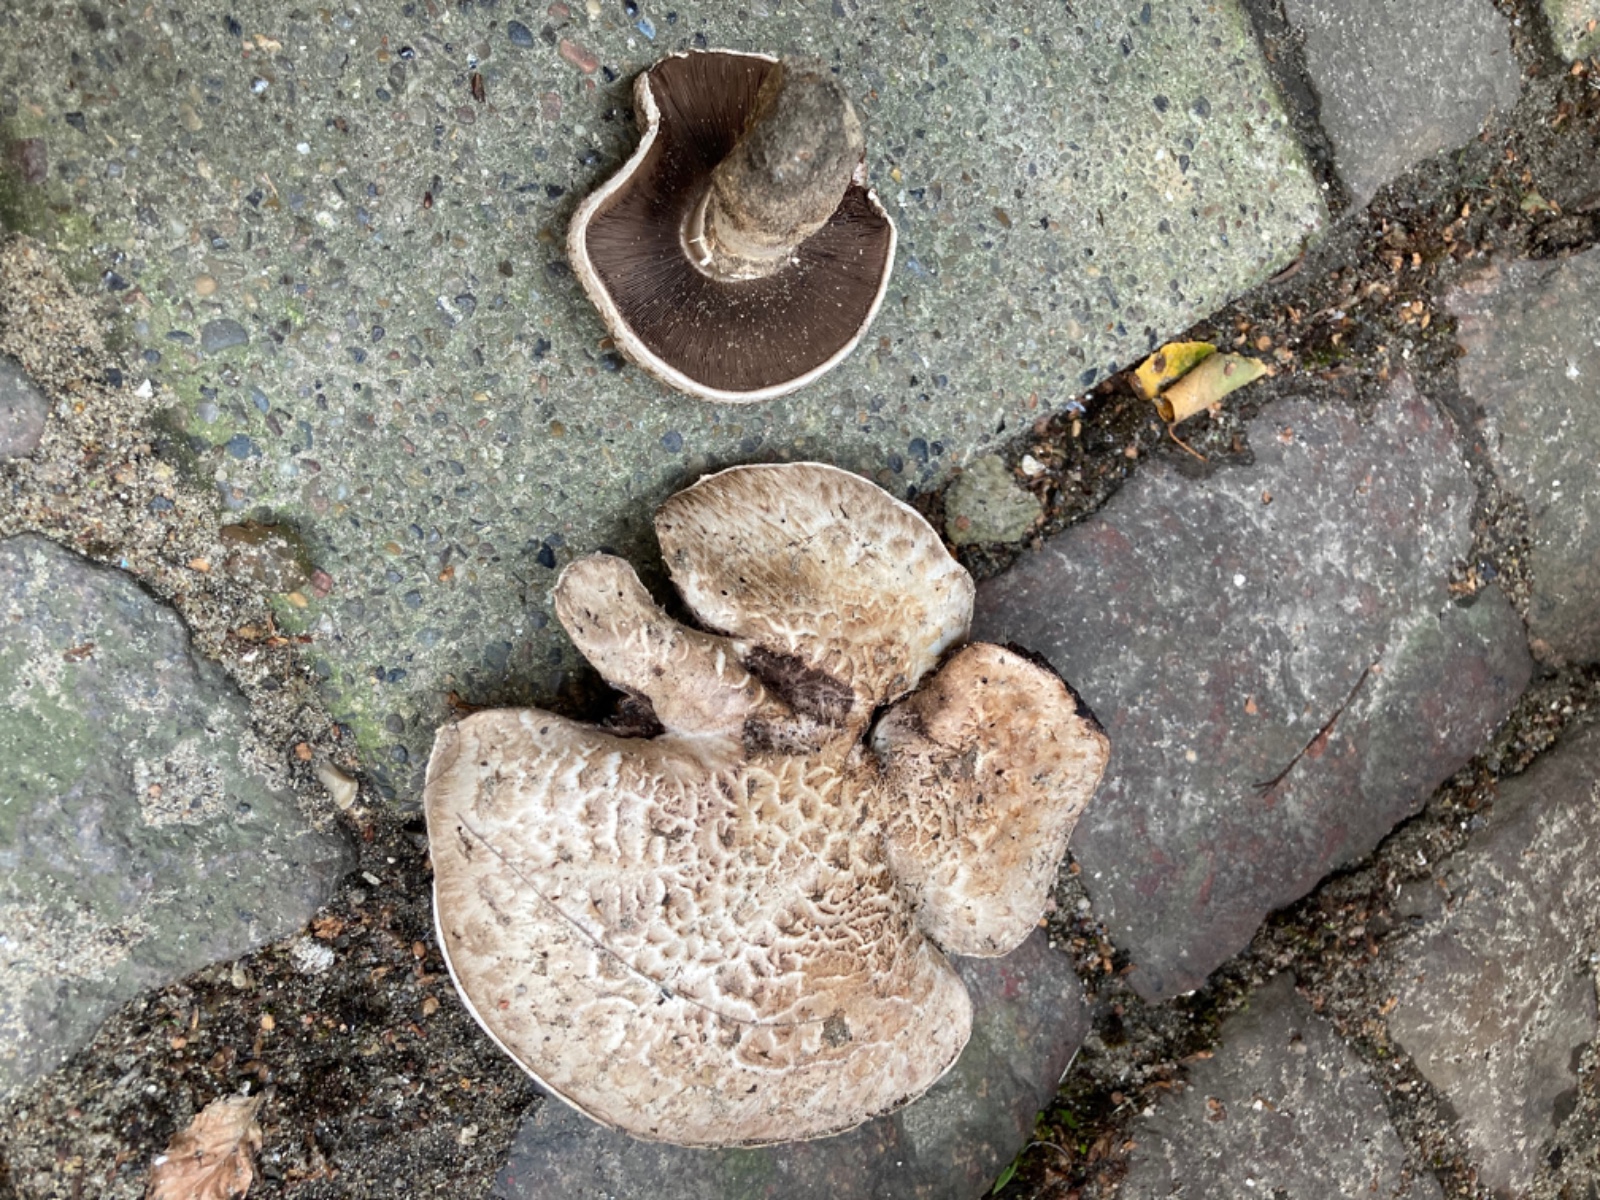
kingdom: Fungi
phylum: Basidiomycota
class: Agaricomycetes
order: Agaricales
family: Agaricaceae
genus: Agaricus
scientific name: Agaricus
